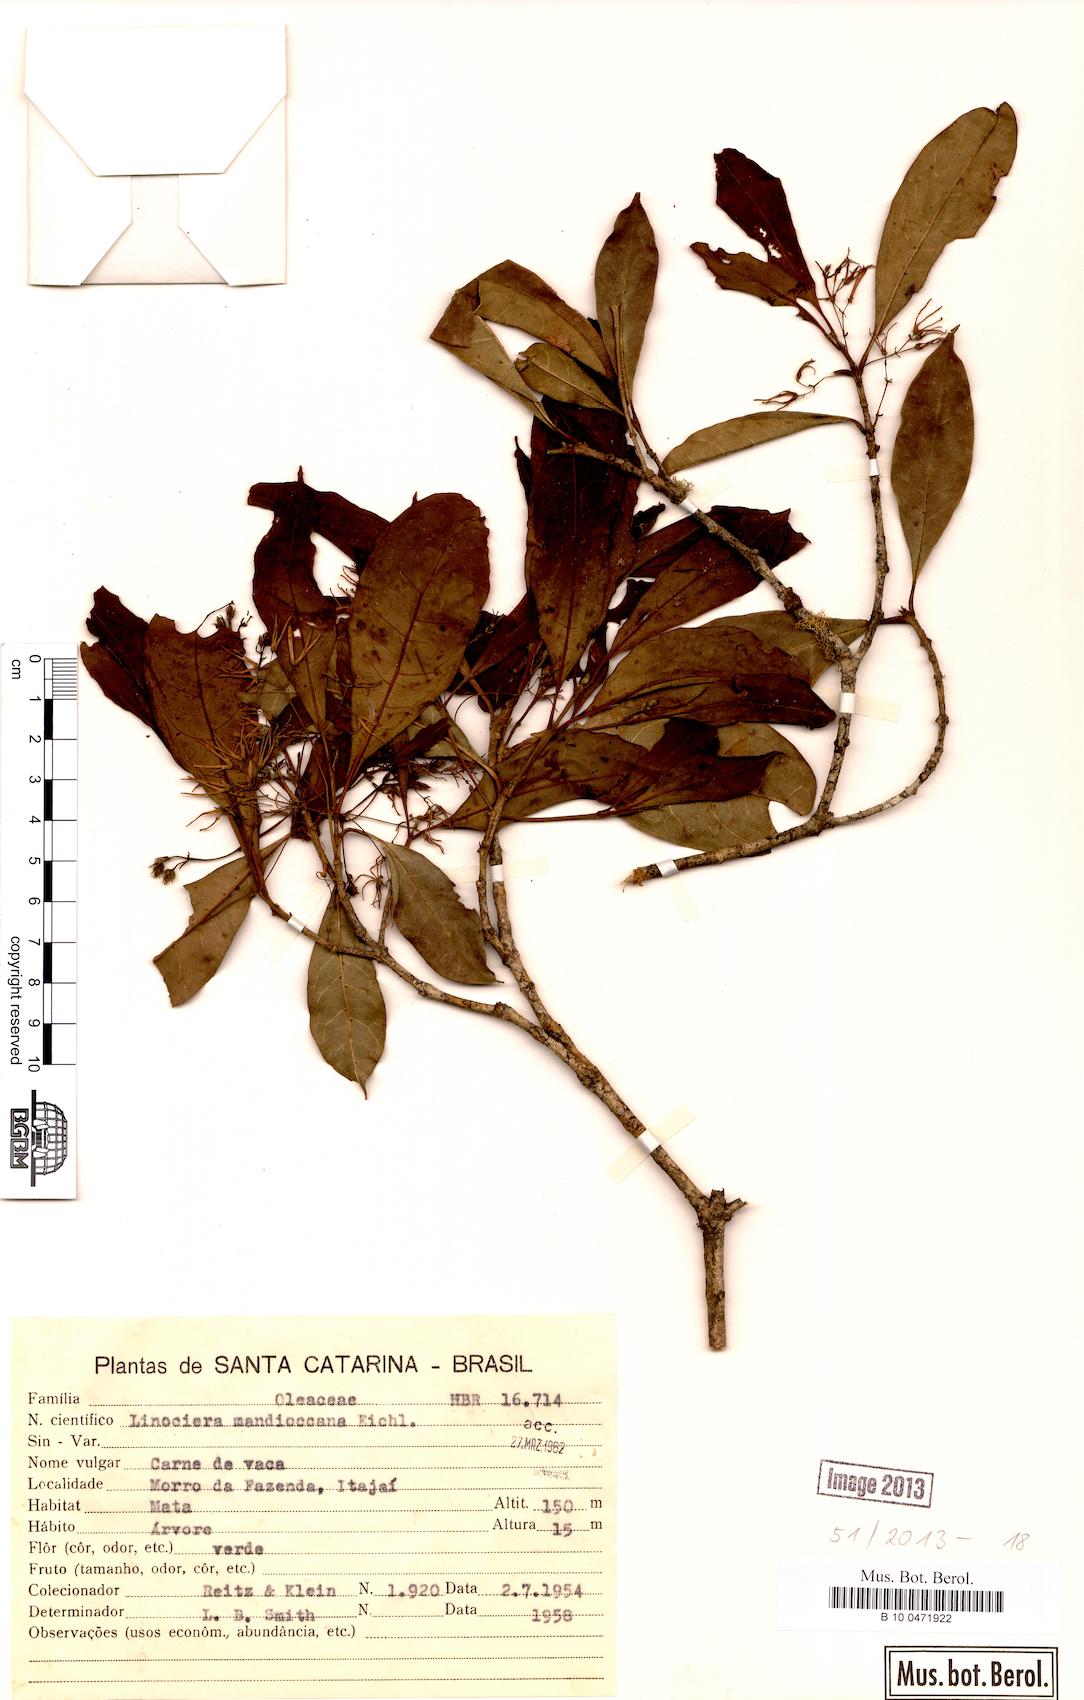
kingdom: Plantae
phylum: Tracheophyta
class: Magnoliopsida
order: Lamiales
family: Oleaceae
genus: Chionanthus
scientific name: Chionanthus filiformis
